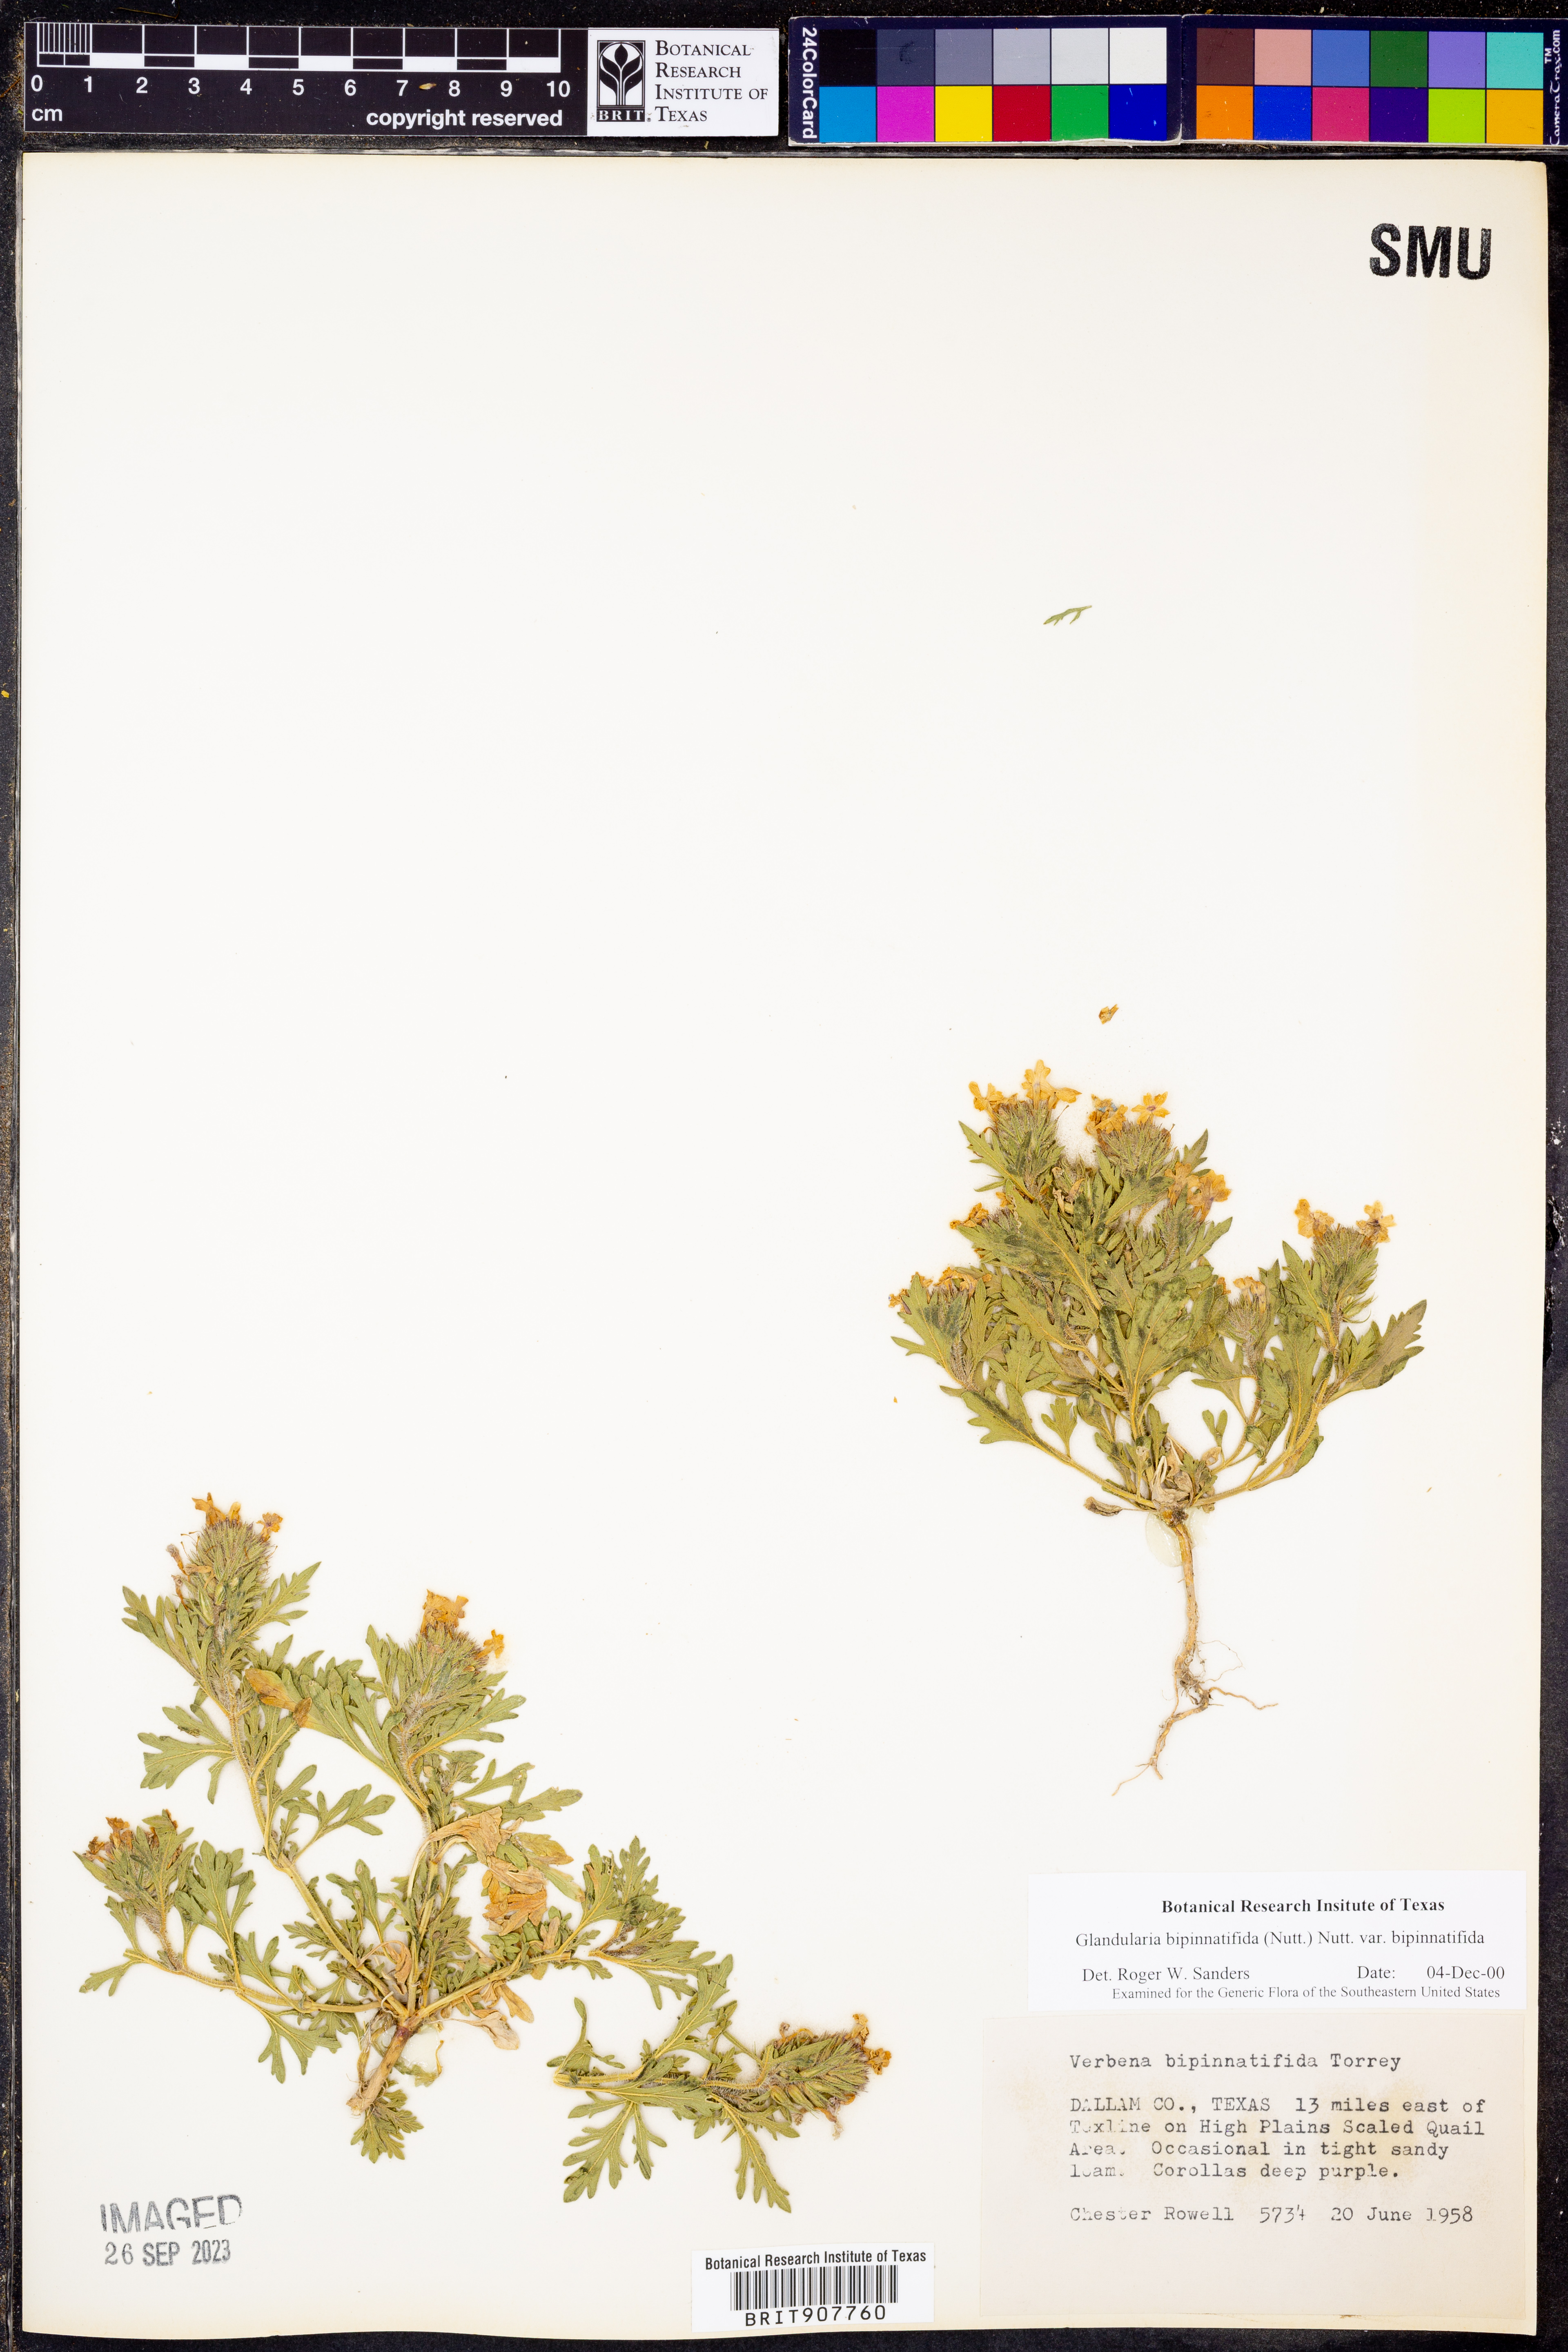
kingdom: Plantae
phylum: Tracheophyta
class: Magnoliopsida
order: Lamiales
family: Verbenaceae
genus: Verbena
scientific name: Verbena bipinnatifida
